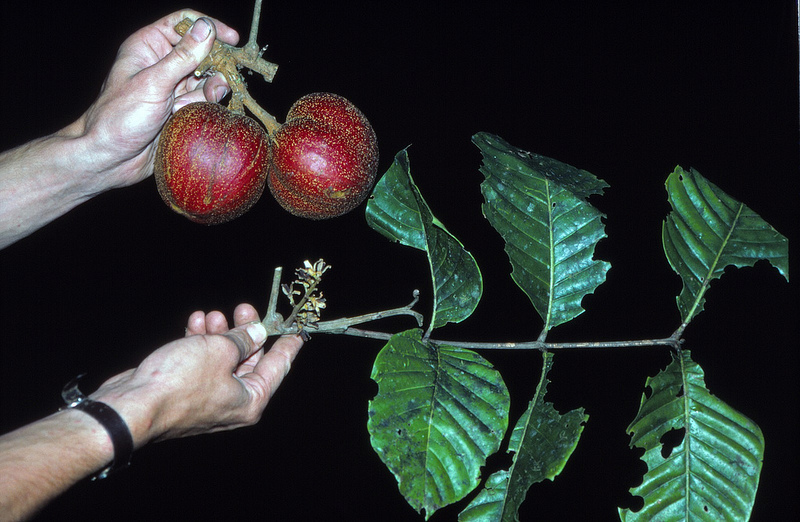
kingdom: Plantae
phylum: Tracheophyta
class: Magnoliopsida
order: Sapindales
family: Meliaceae
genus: Guarea
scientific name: Guarea glabra
